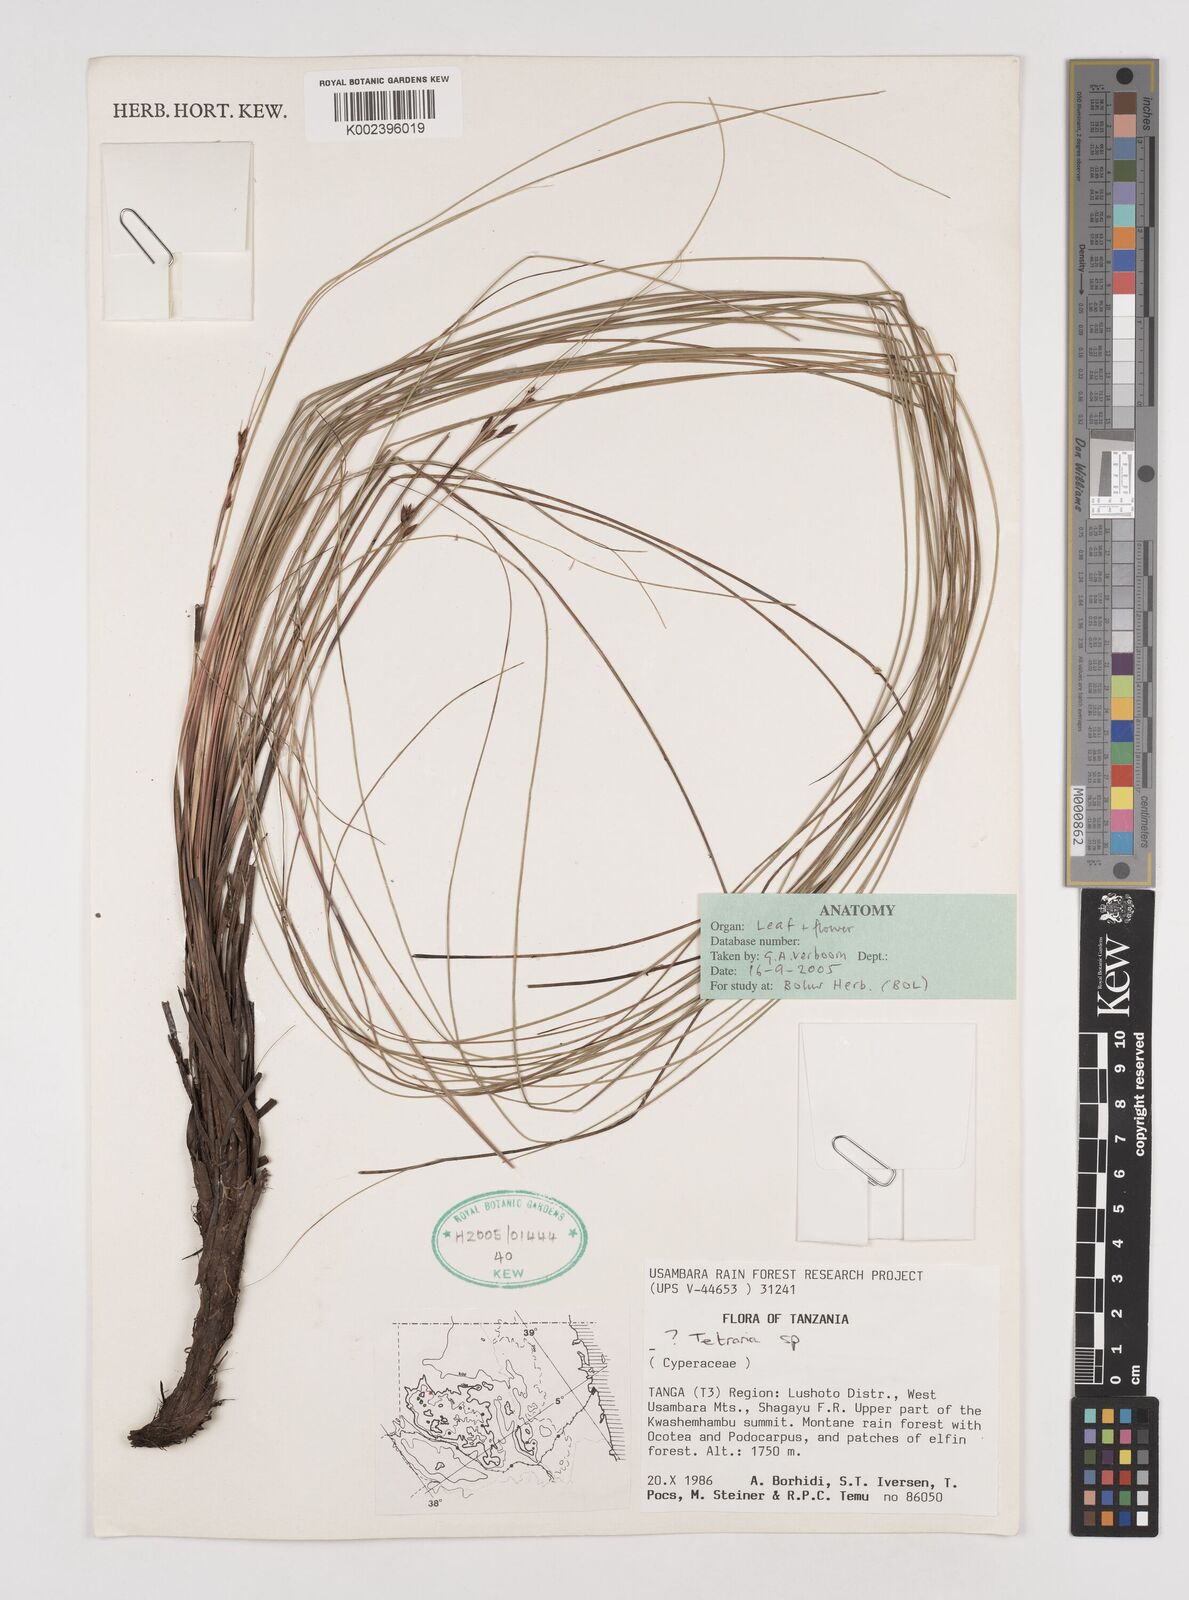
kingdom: Plantae
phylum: Tracheophyta
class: Liliopsida
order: Poales
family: Cyperaceae
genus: Tetraria
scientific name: Tetraria
